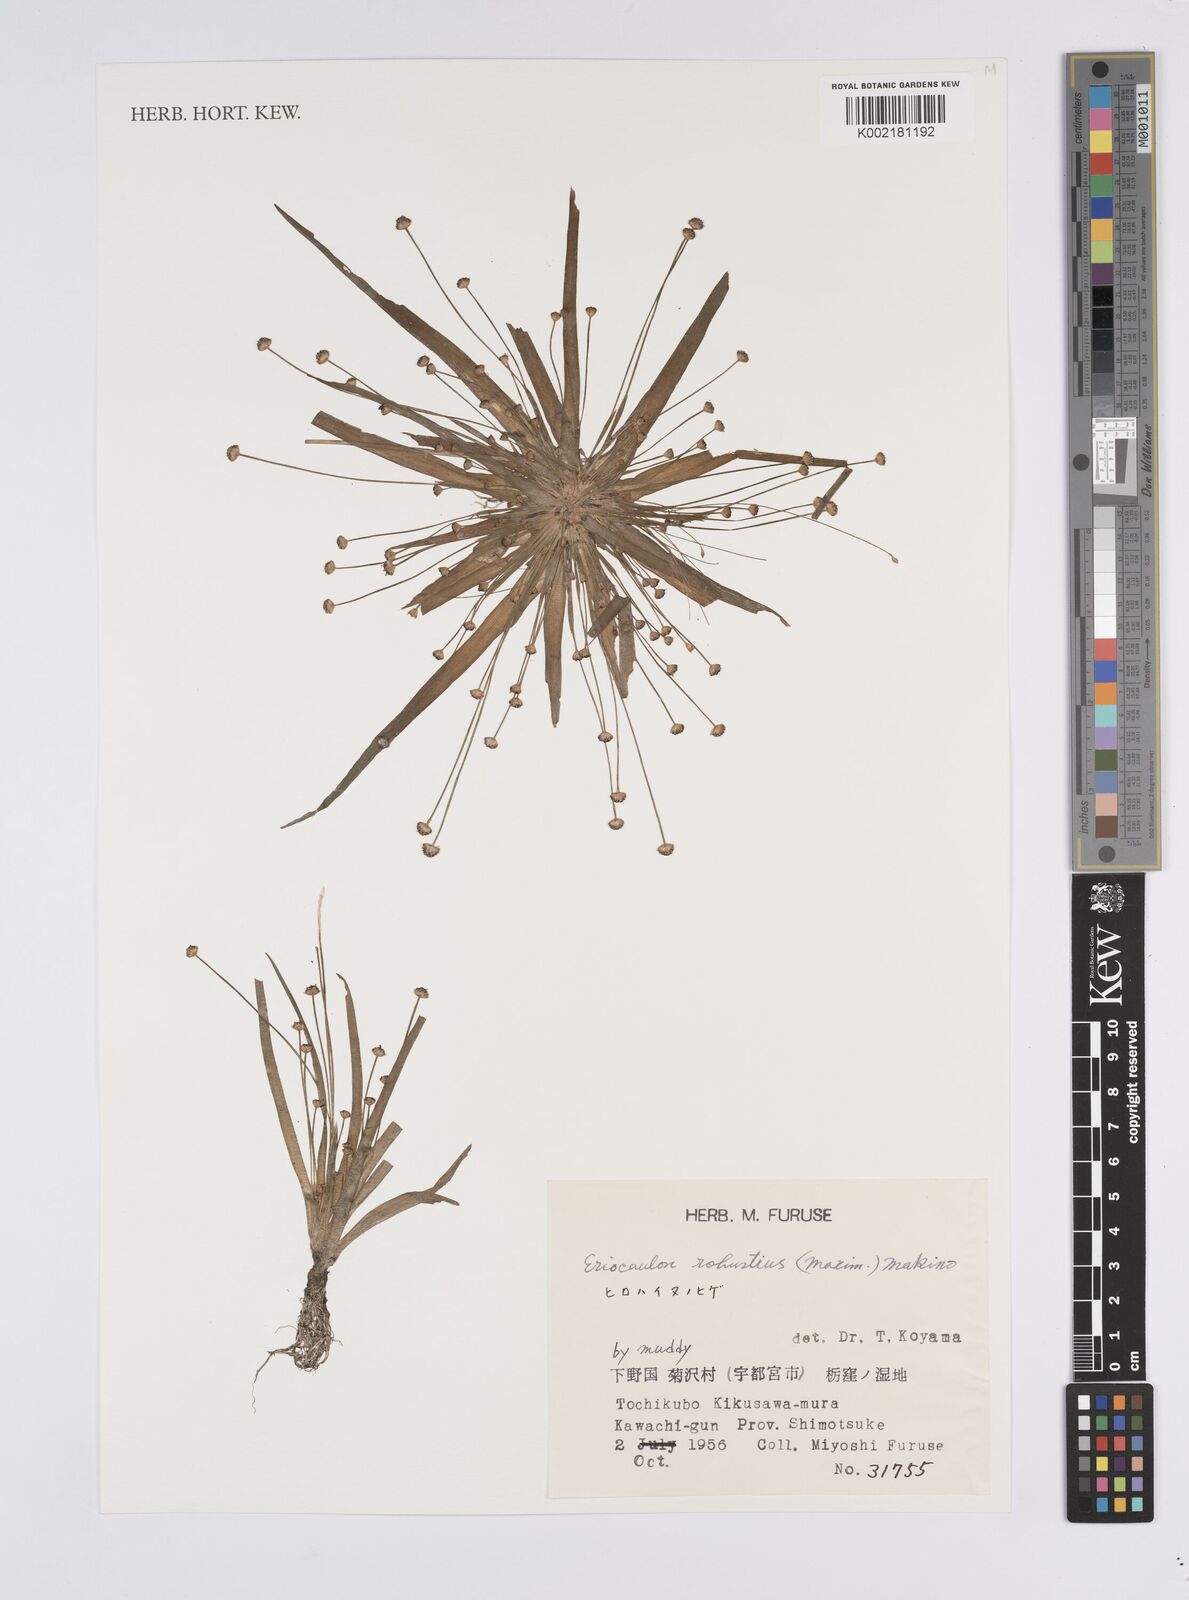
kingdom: Plantae
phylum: Tracheophyta
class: Liliopsida
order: Poales
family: Eriocaulaceae
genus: Eriocaulon
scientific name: Eriocaulon alpestre
